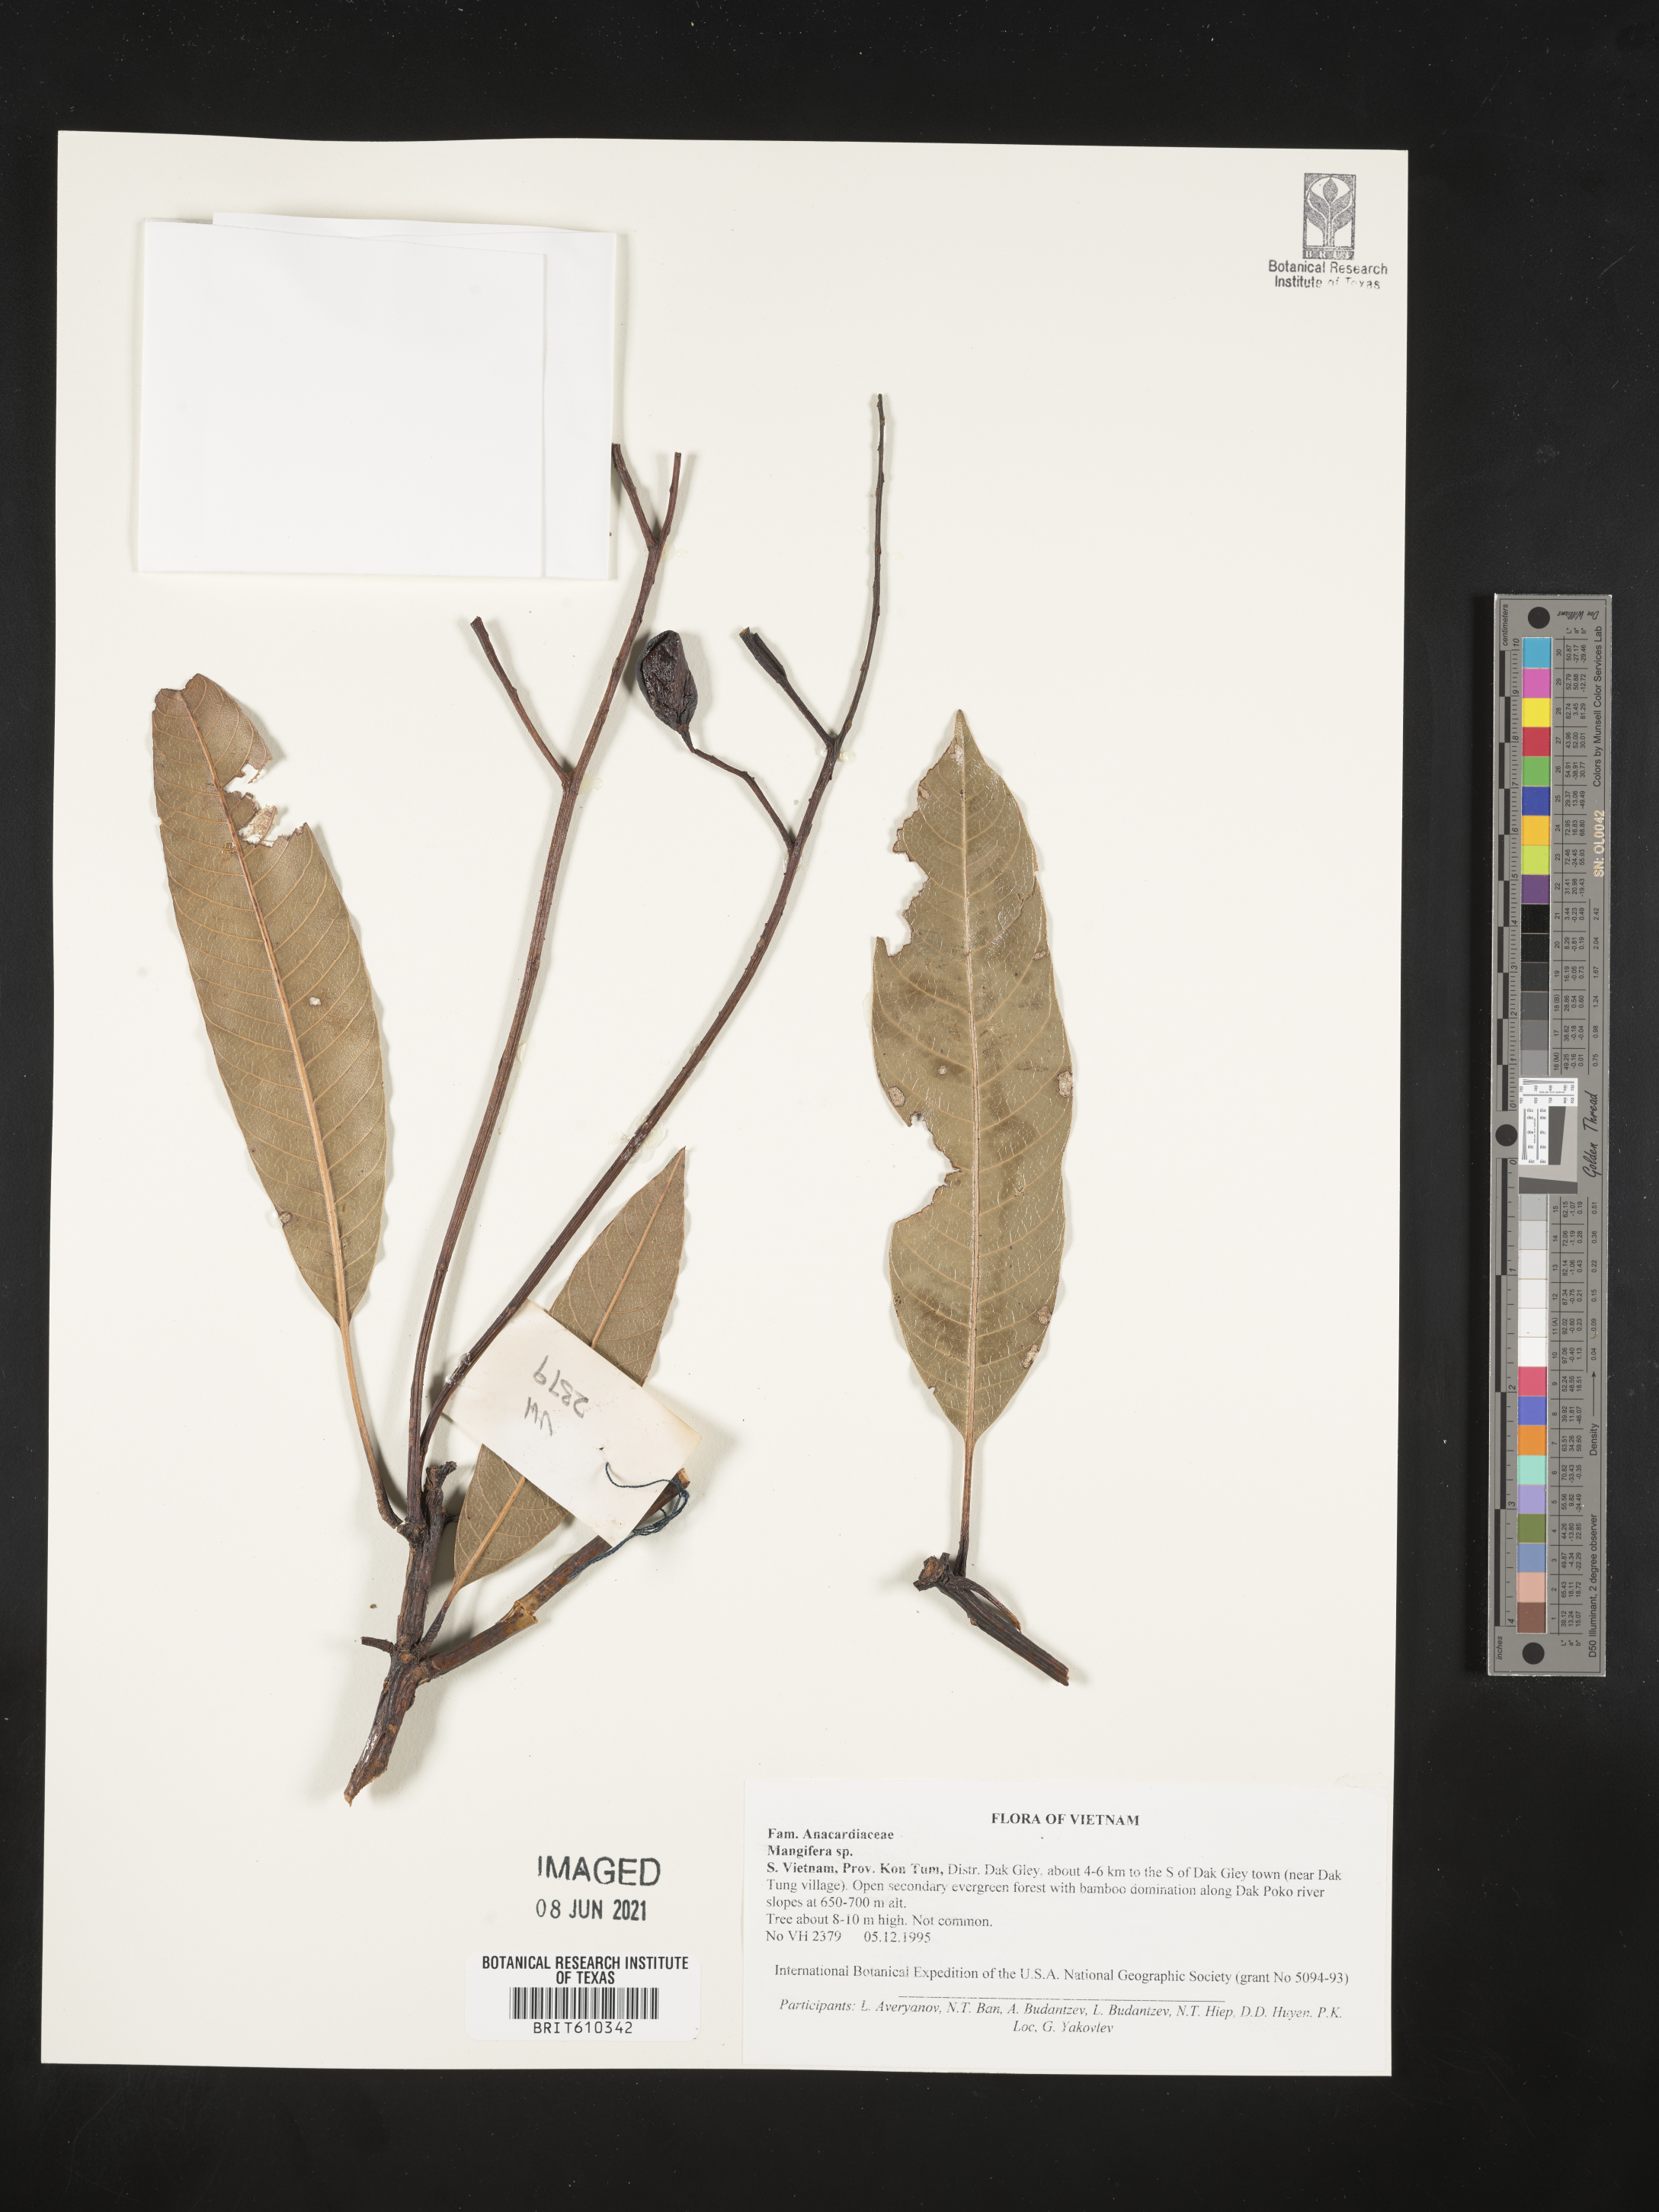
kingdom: Plantae
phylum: Tracheophyta
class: Magnoliopsida
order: Sapindales
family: Anacardiaceae
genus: Mangifera
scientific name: Mangifera
